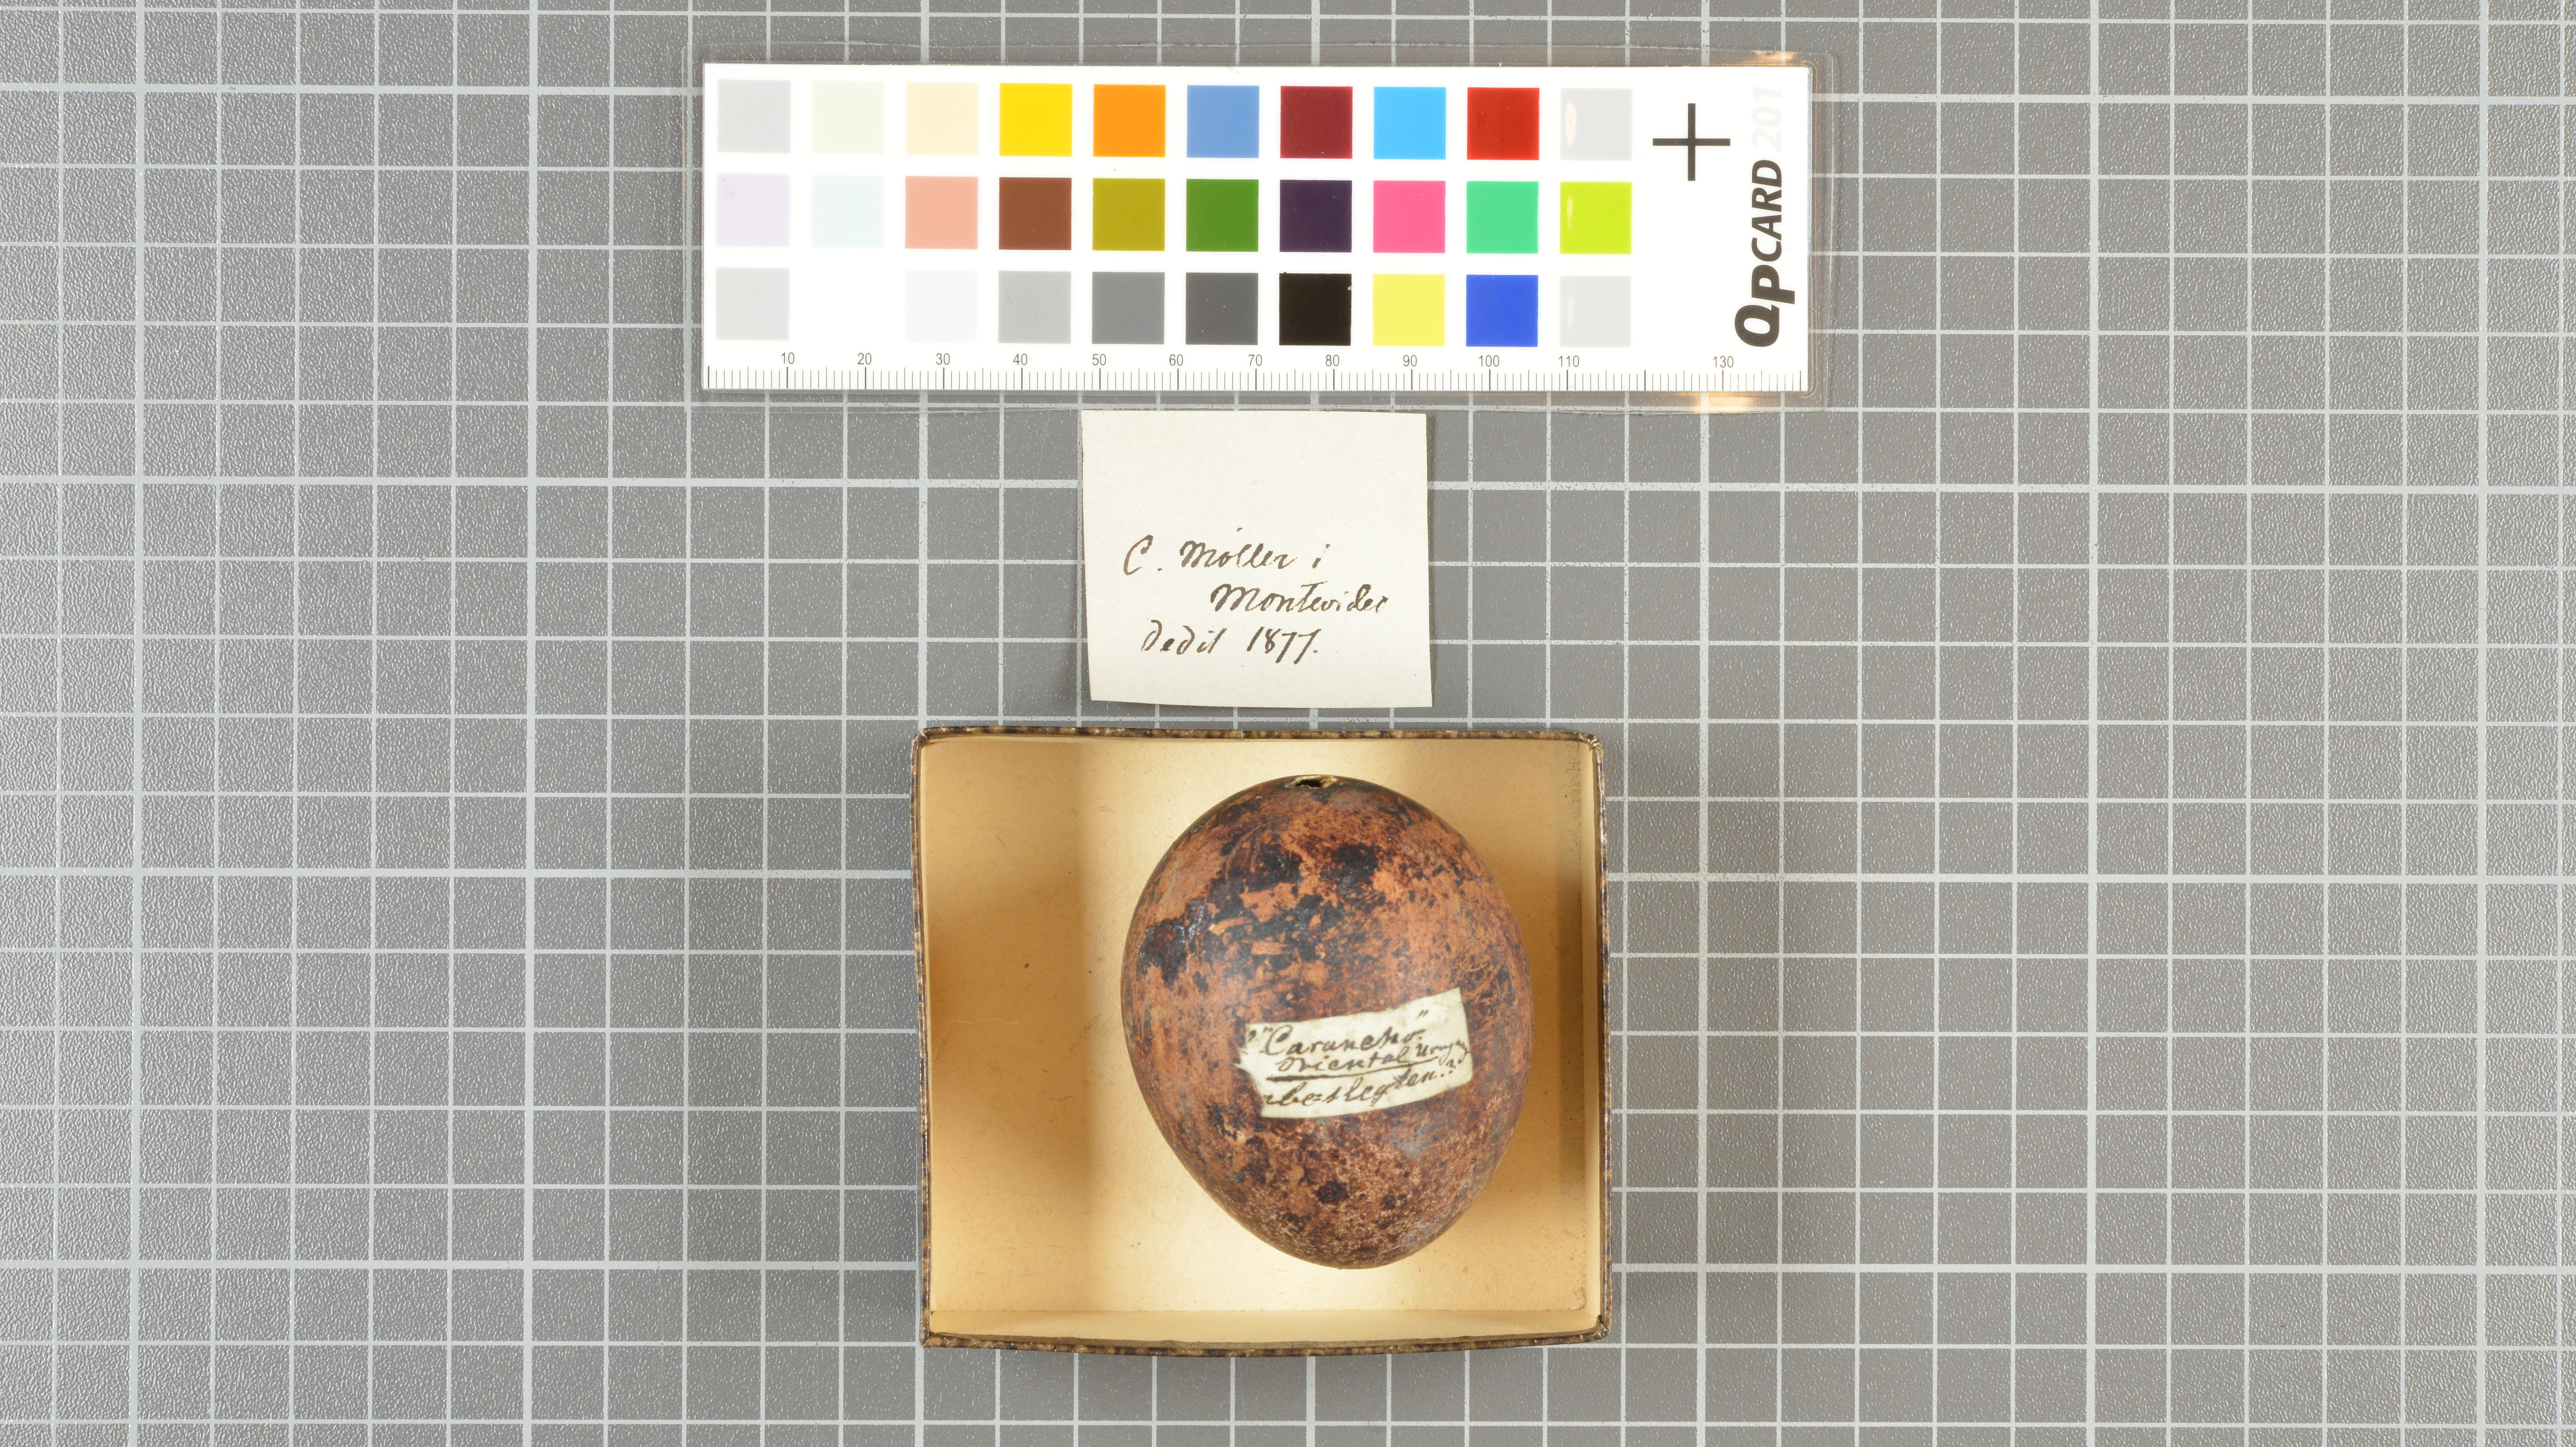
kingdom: Animalia
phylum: Chordata
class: Aves
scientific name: Aves
